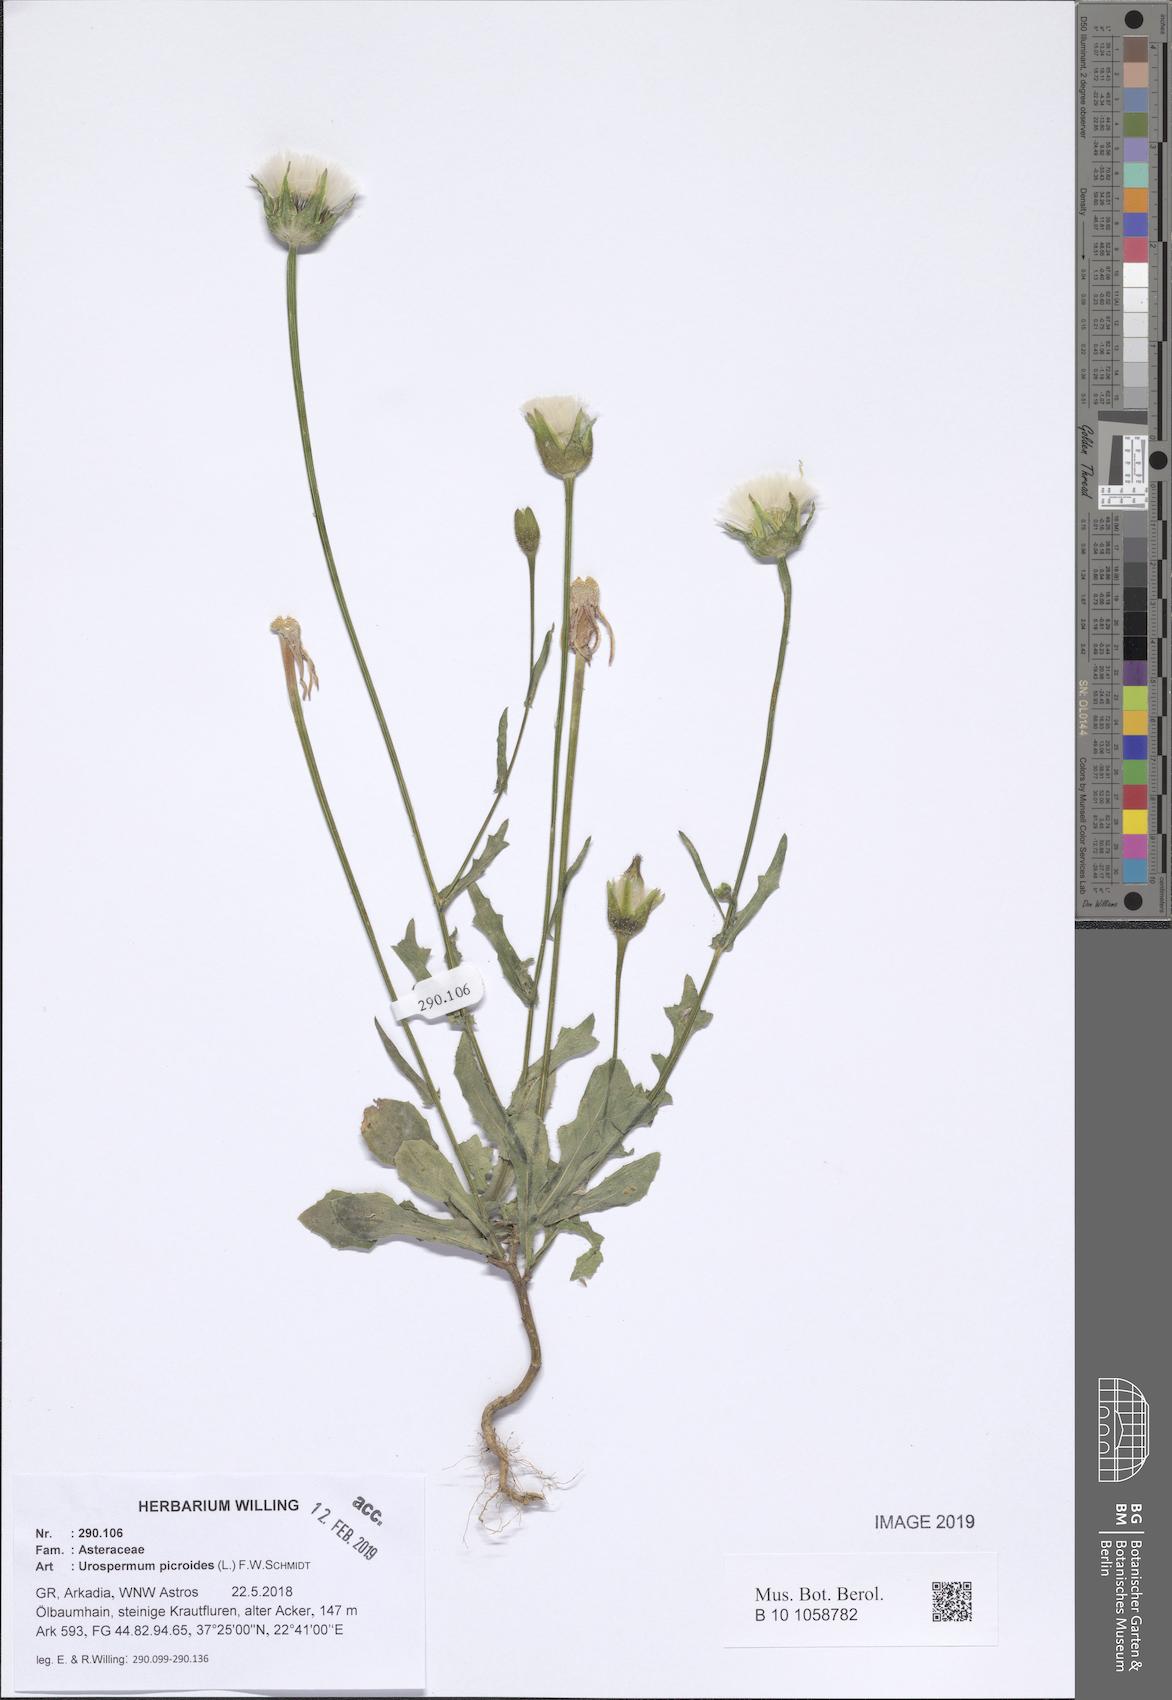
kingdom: Plantae
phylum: Tracheophyta
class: Magnoliopsida
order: Asterales
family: Asteraceae
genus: Urospermum
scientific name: Urospermum picroides
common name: False hawkbit
